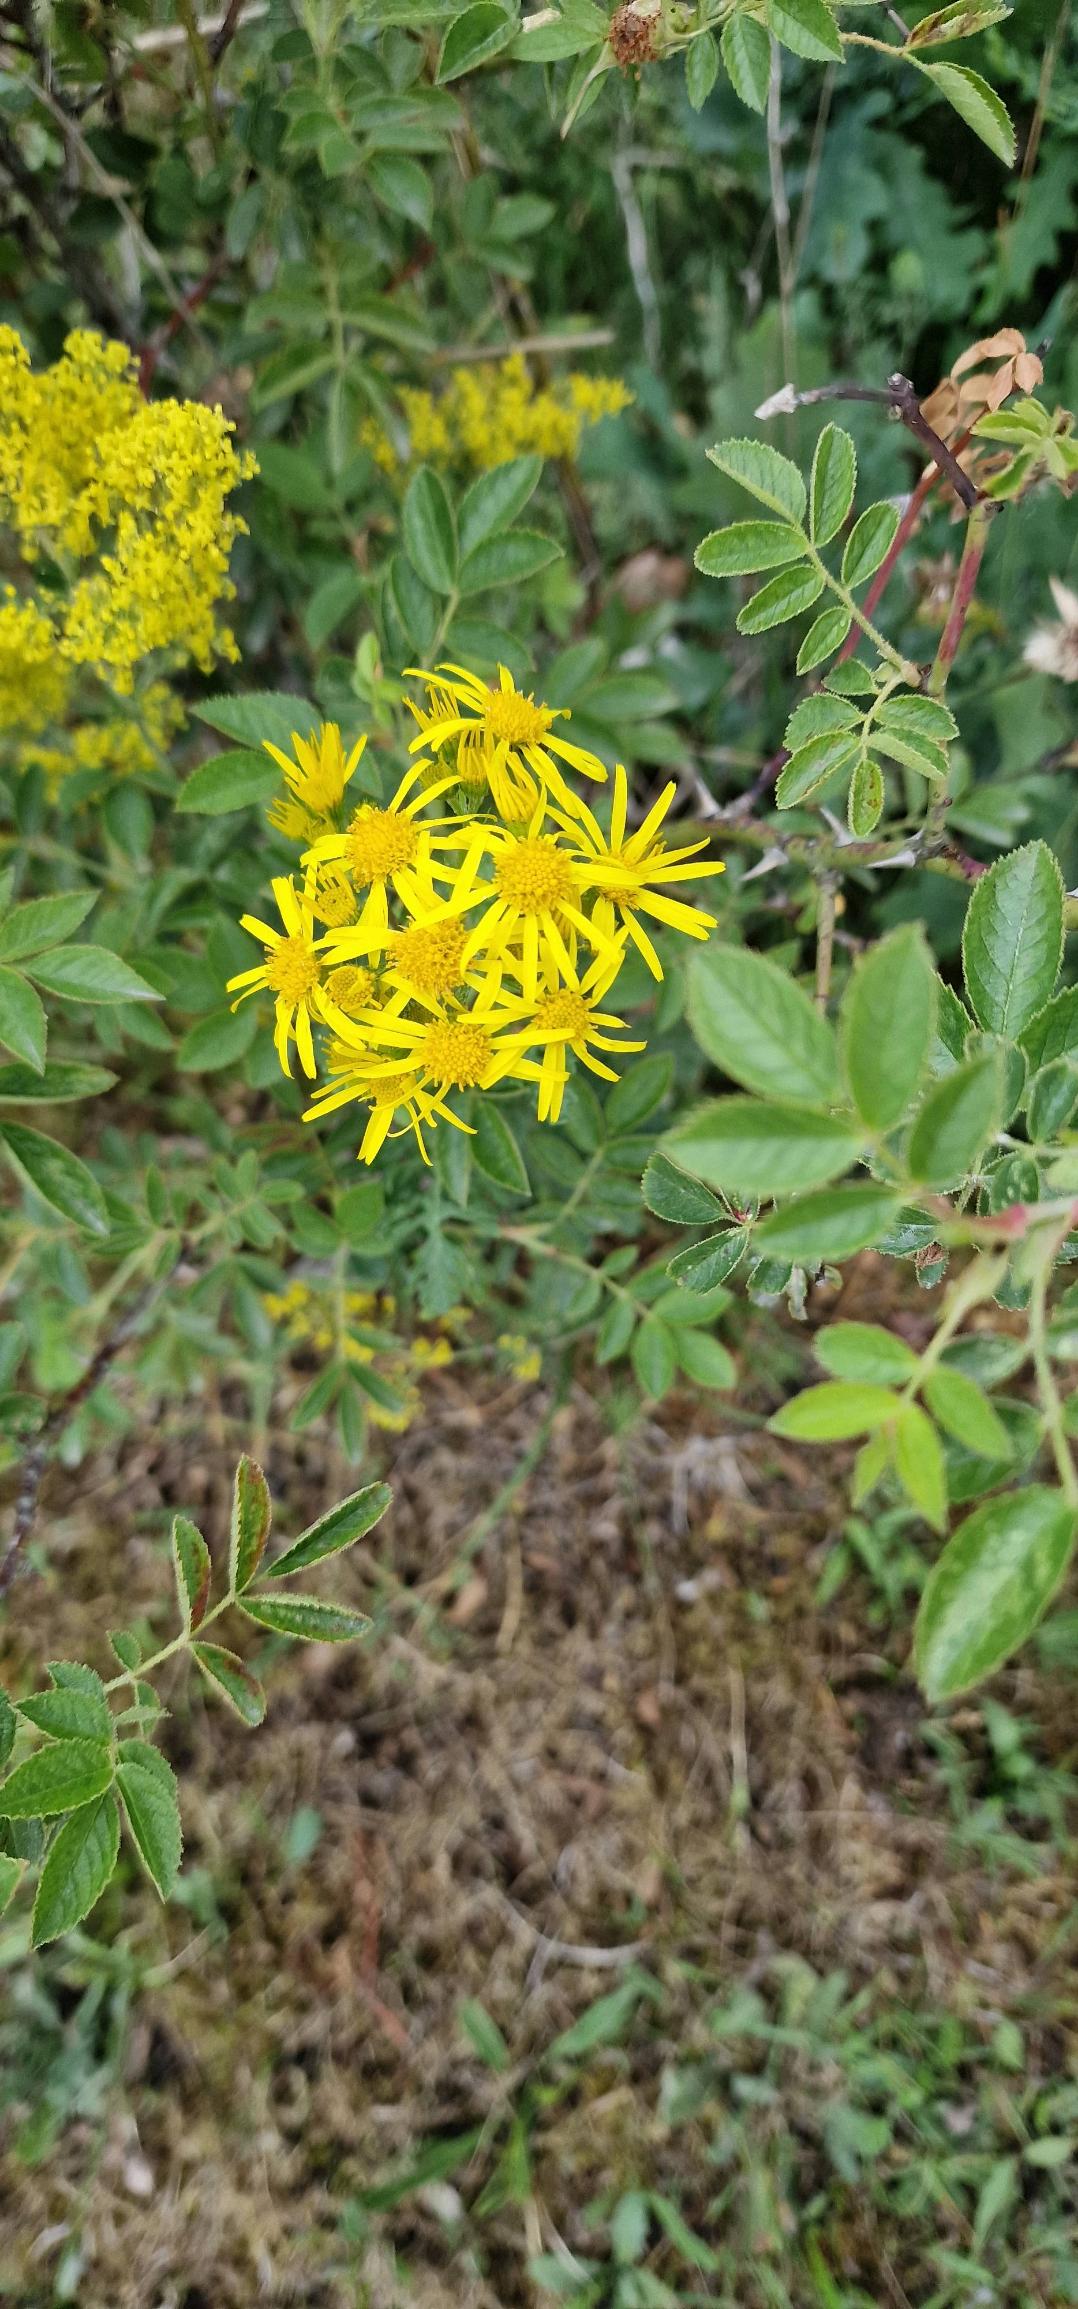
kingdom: Plantae
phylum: Tracheophyta
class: Magnoliopsida
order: Asterales
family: Asteraceae
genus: Jacobaea
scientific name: Jacobaea vulgaris
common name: Eng-brandbæger
